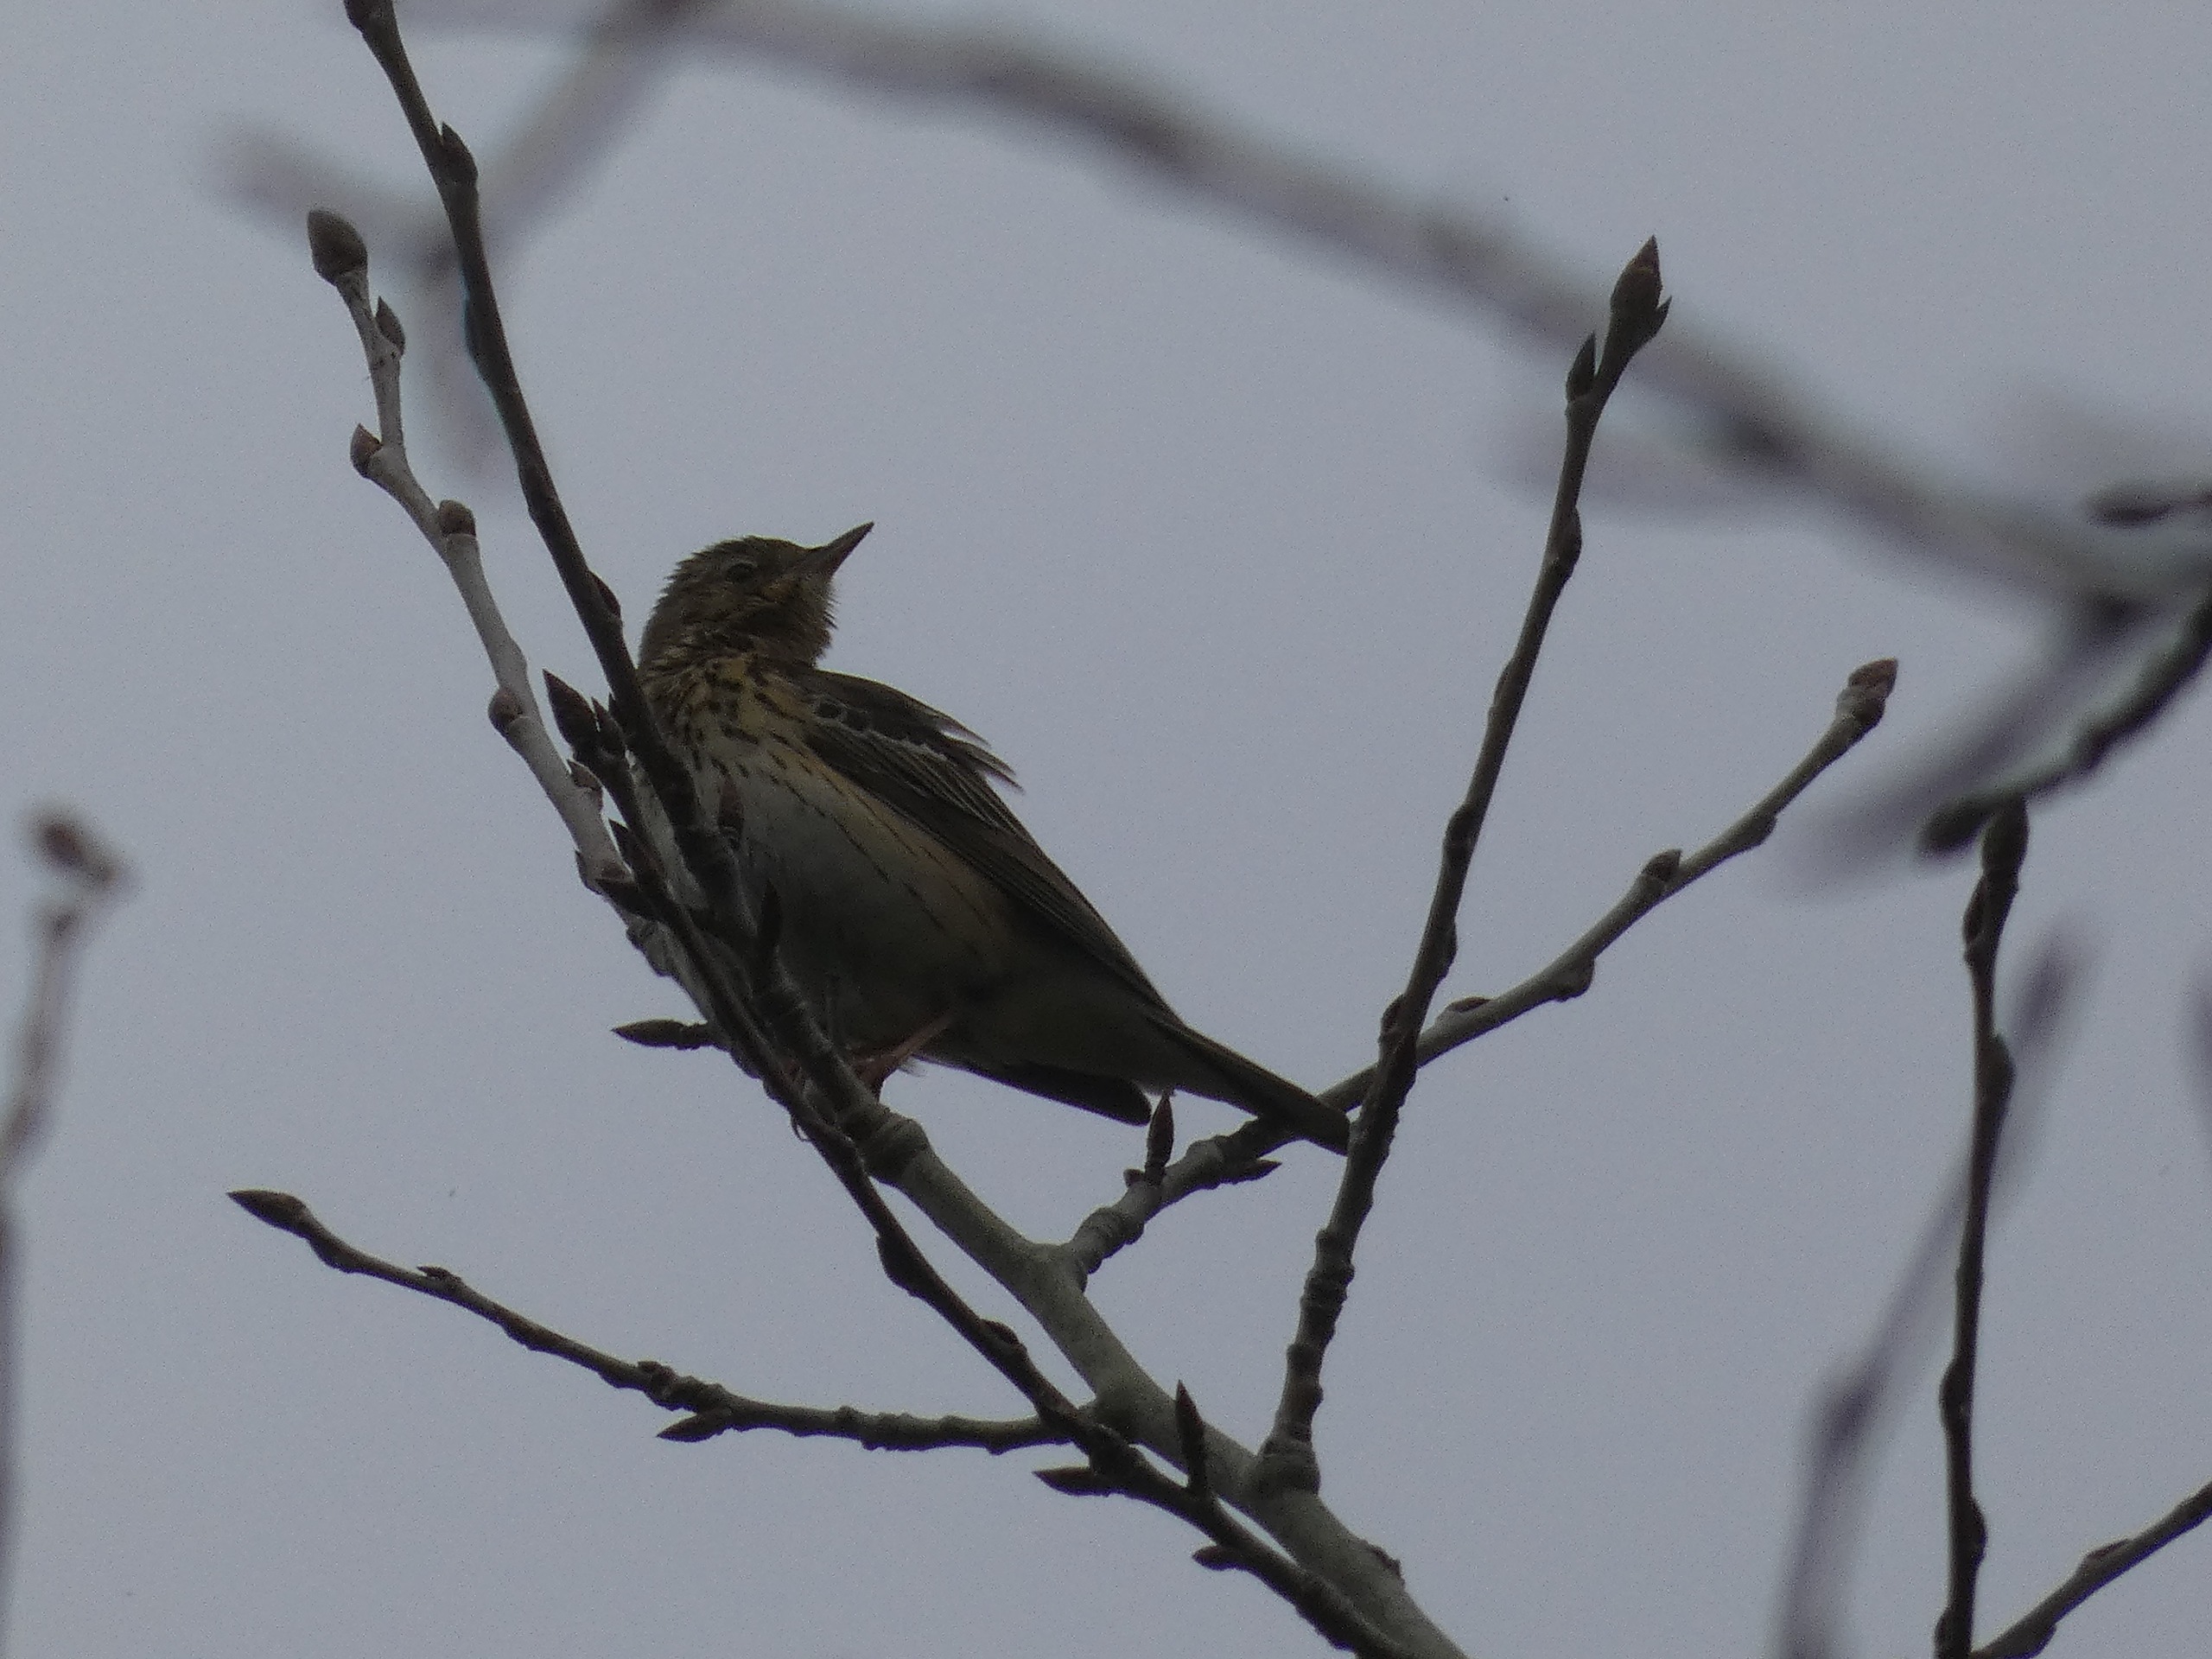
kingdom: Animalia
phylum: Chordata
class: Aves
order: Passeriformes
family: Motacillidae
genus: Anthus
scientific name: Anthus trivialis
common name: Skovpiber
